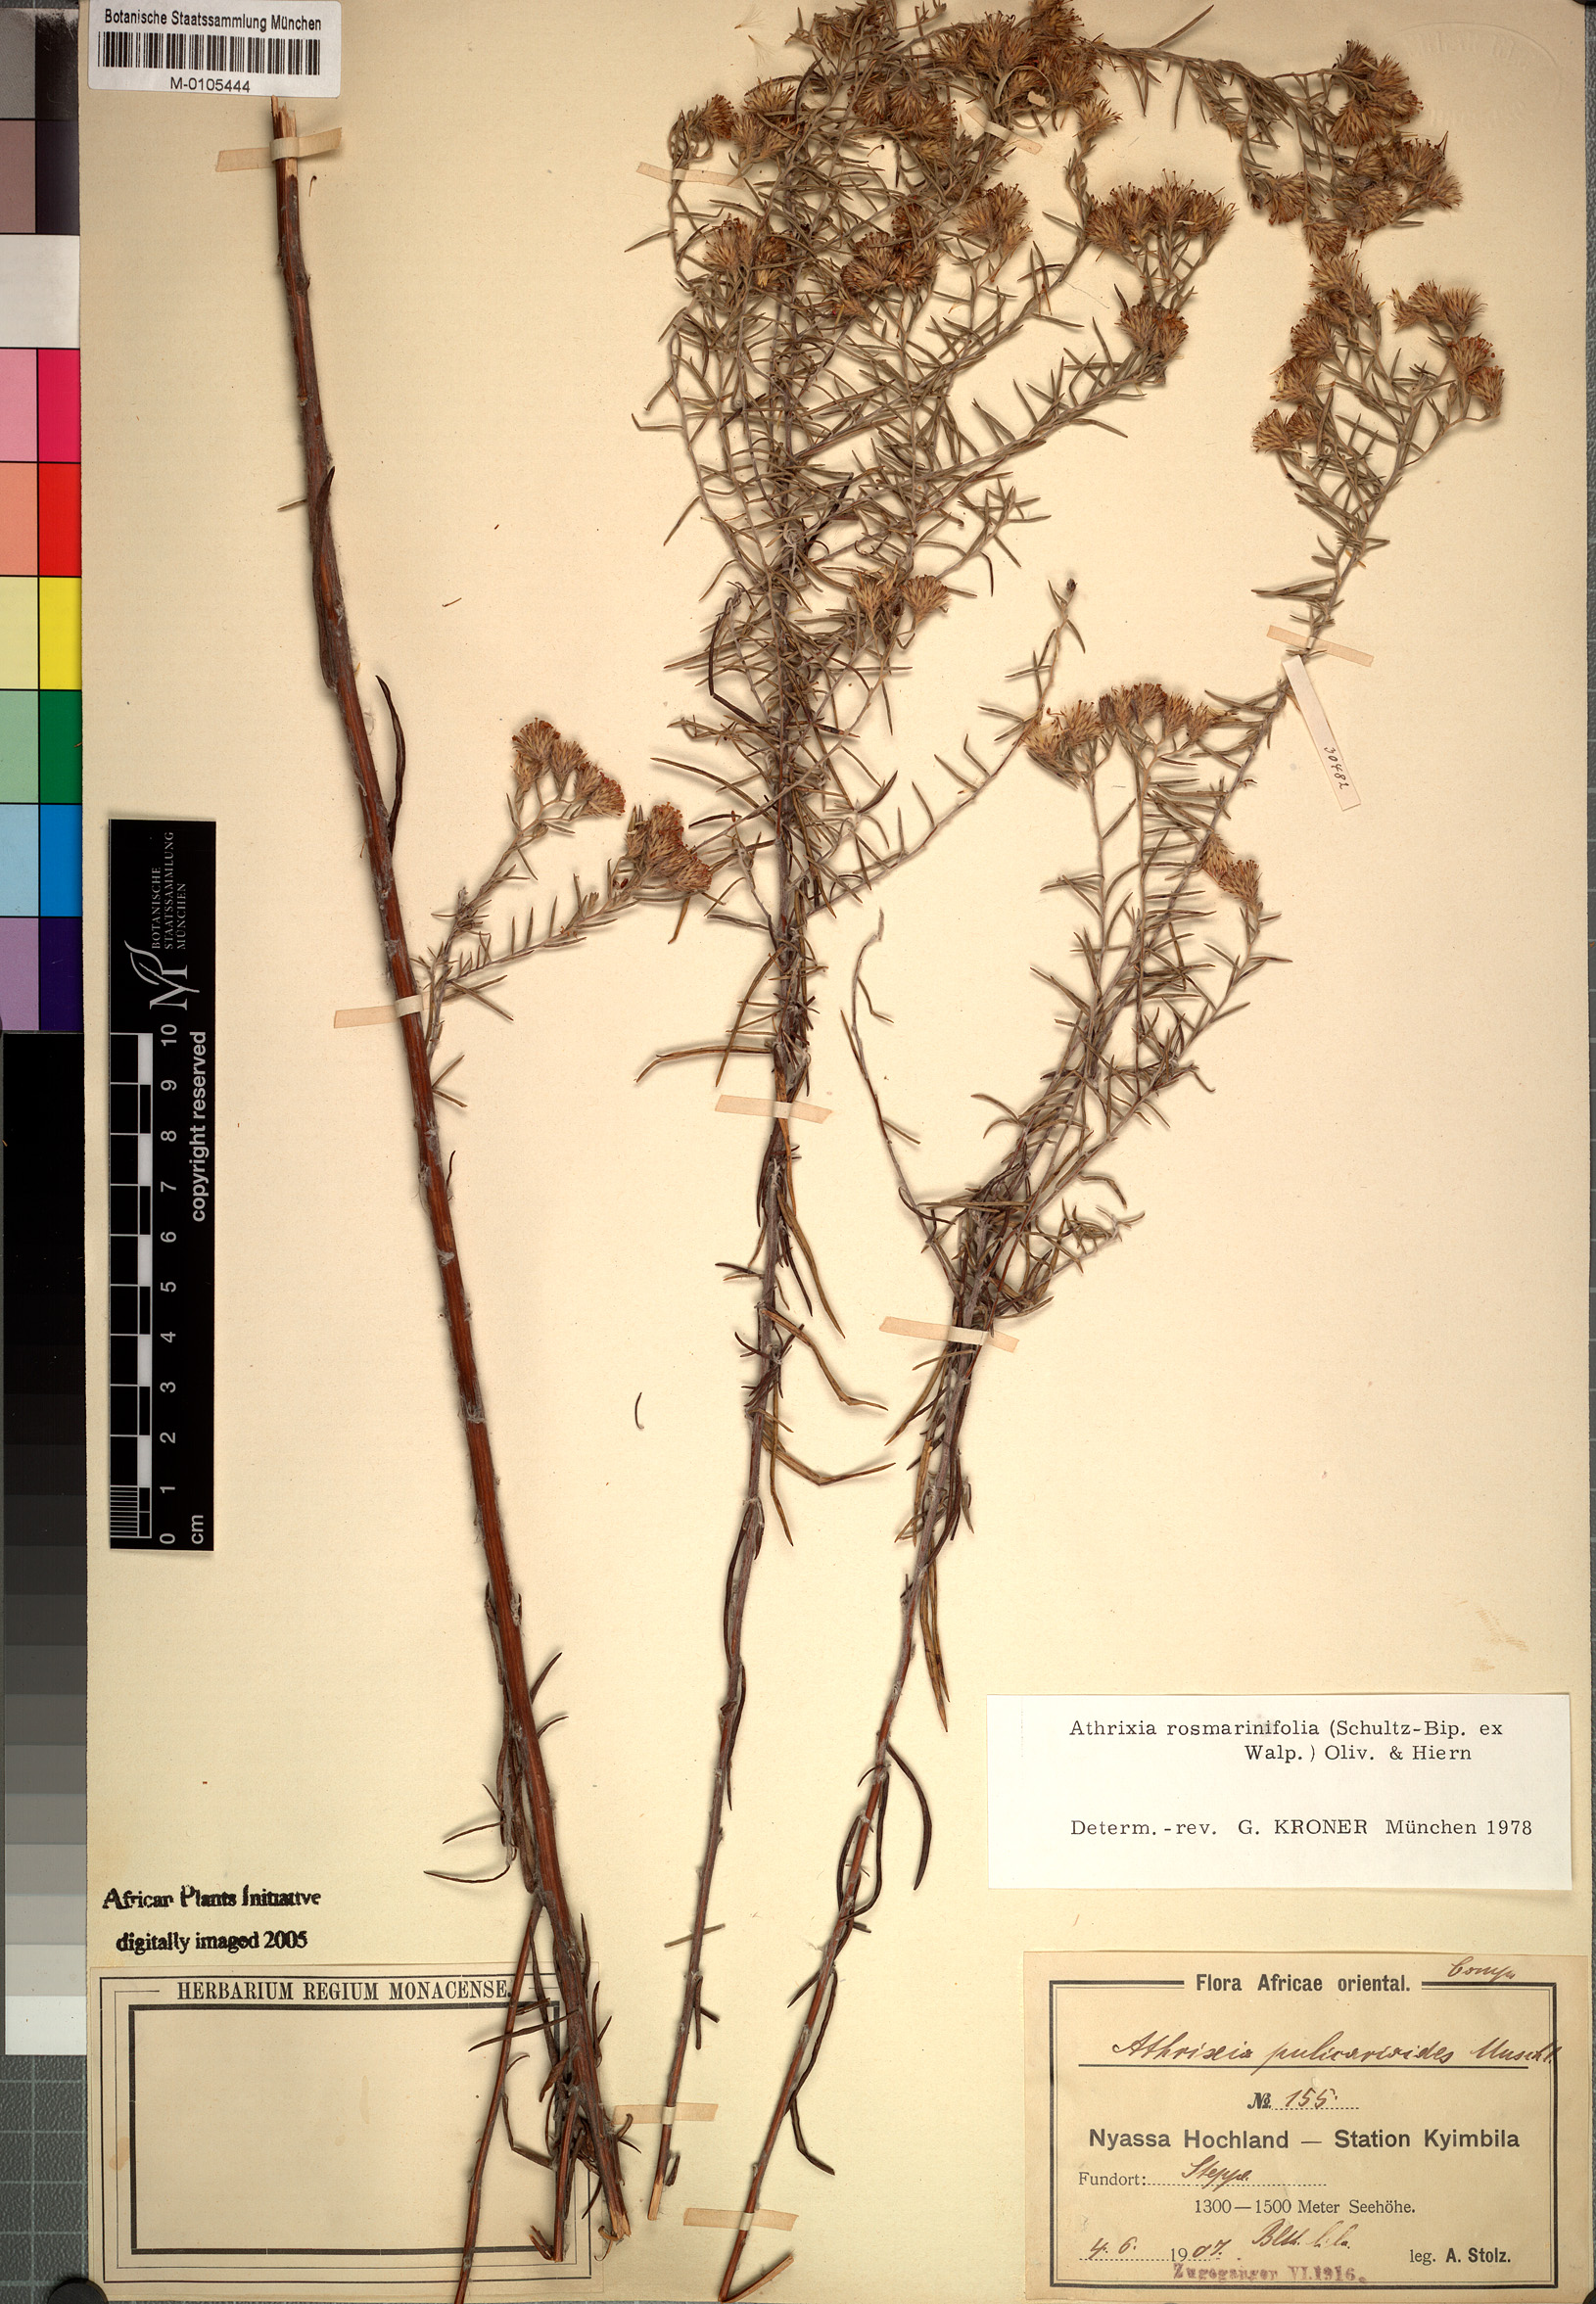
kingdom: Plantae
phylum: Tracheophyta
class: Magnoliopsida
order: Asterales
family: Asteraceae
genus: Athrixia
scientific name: Athrixia rosmarinifolia
